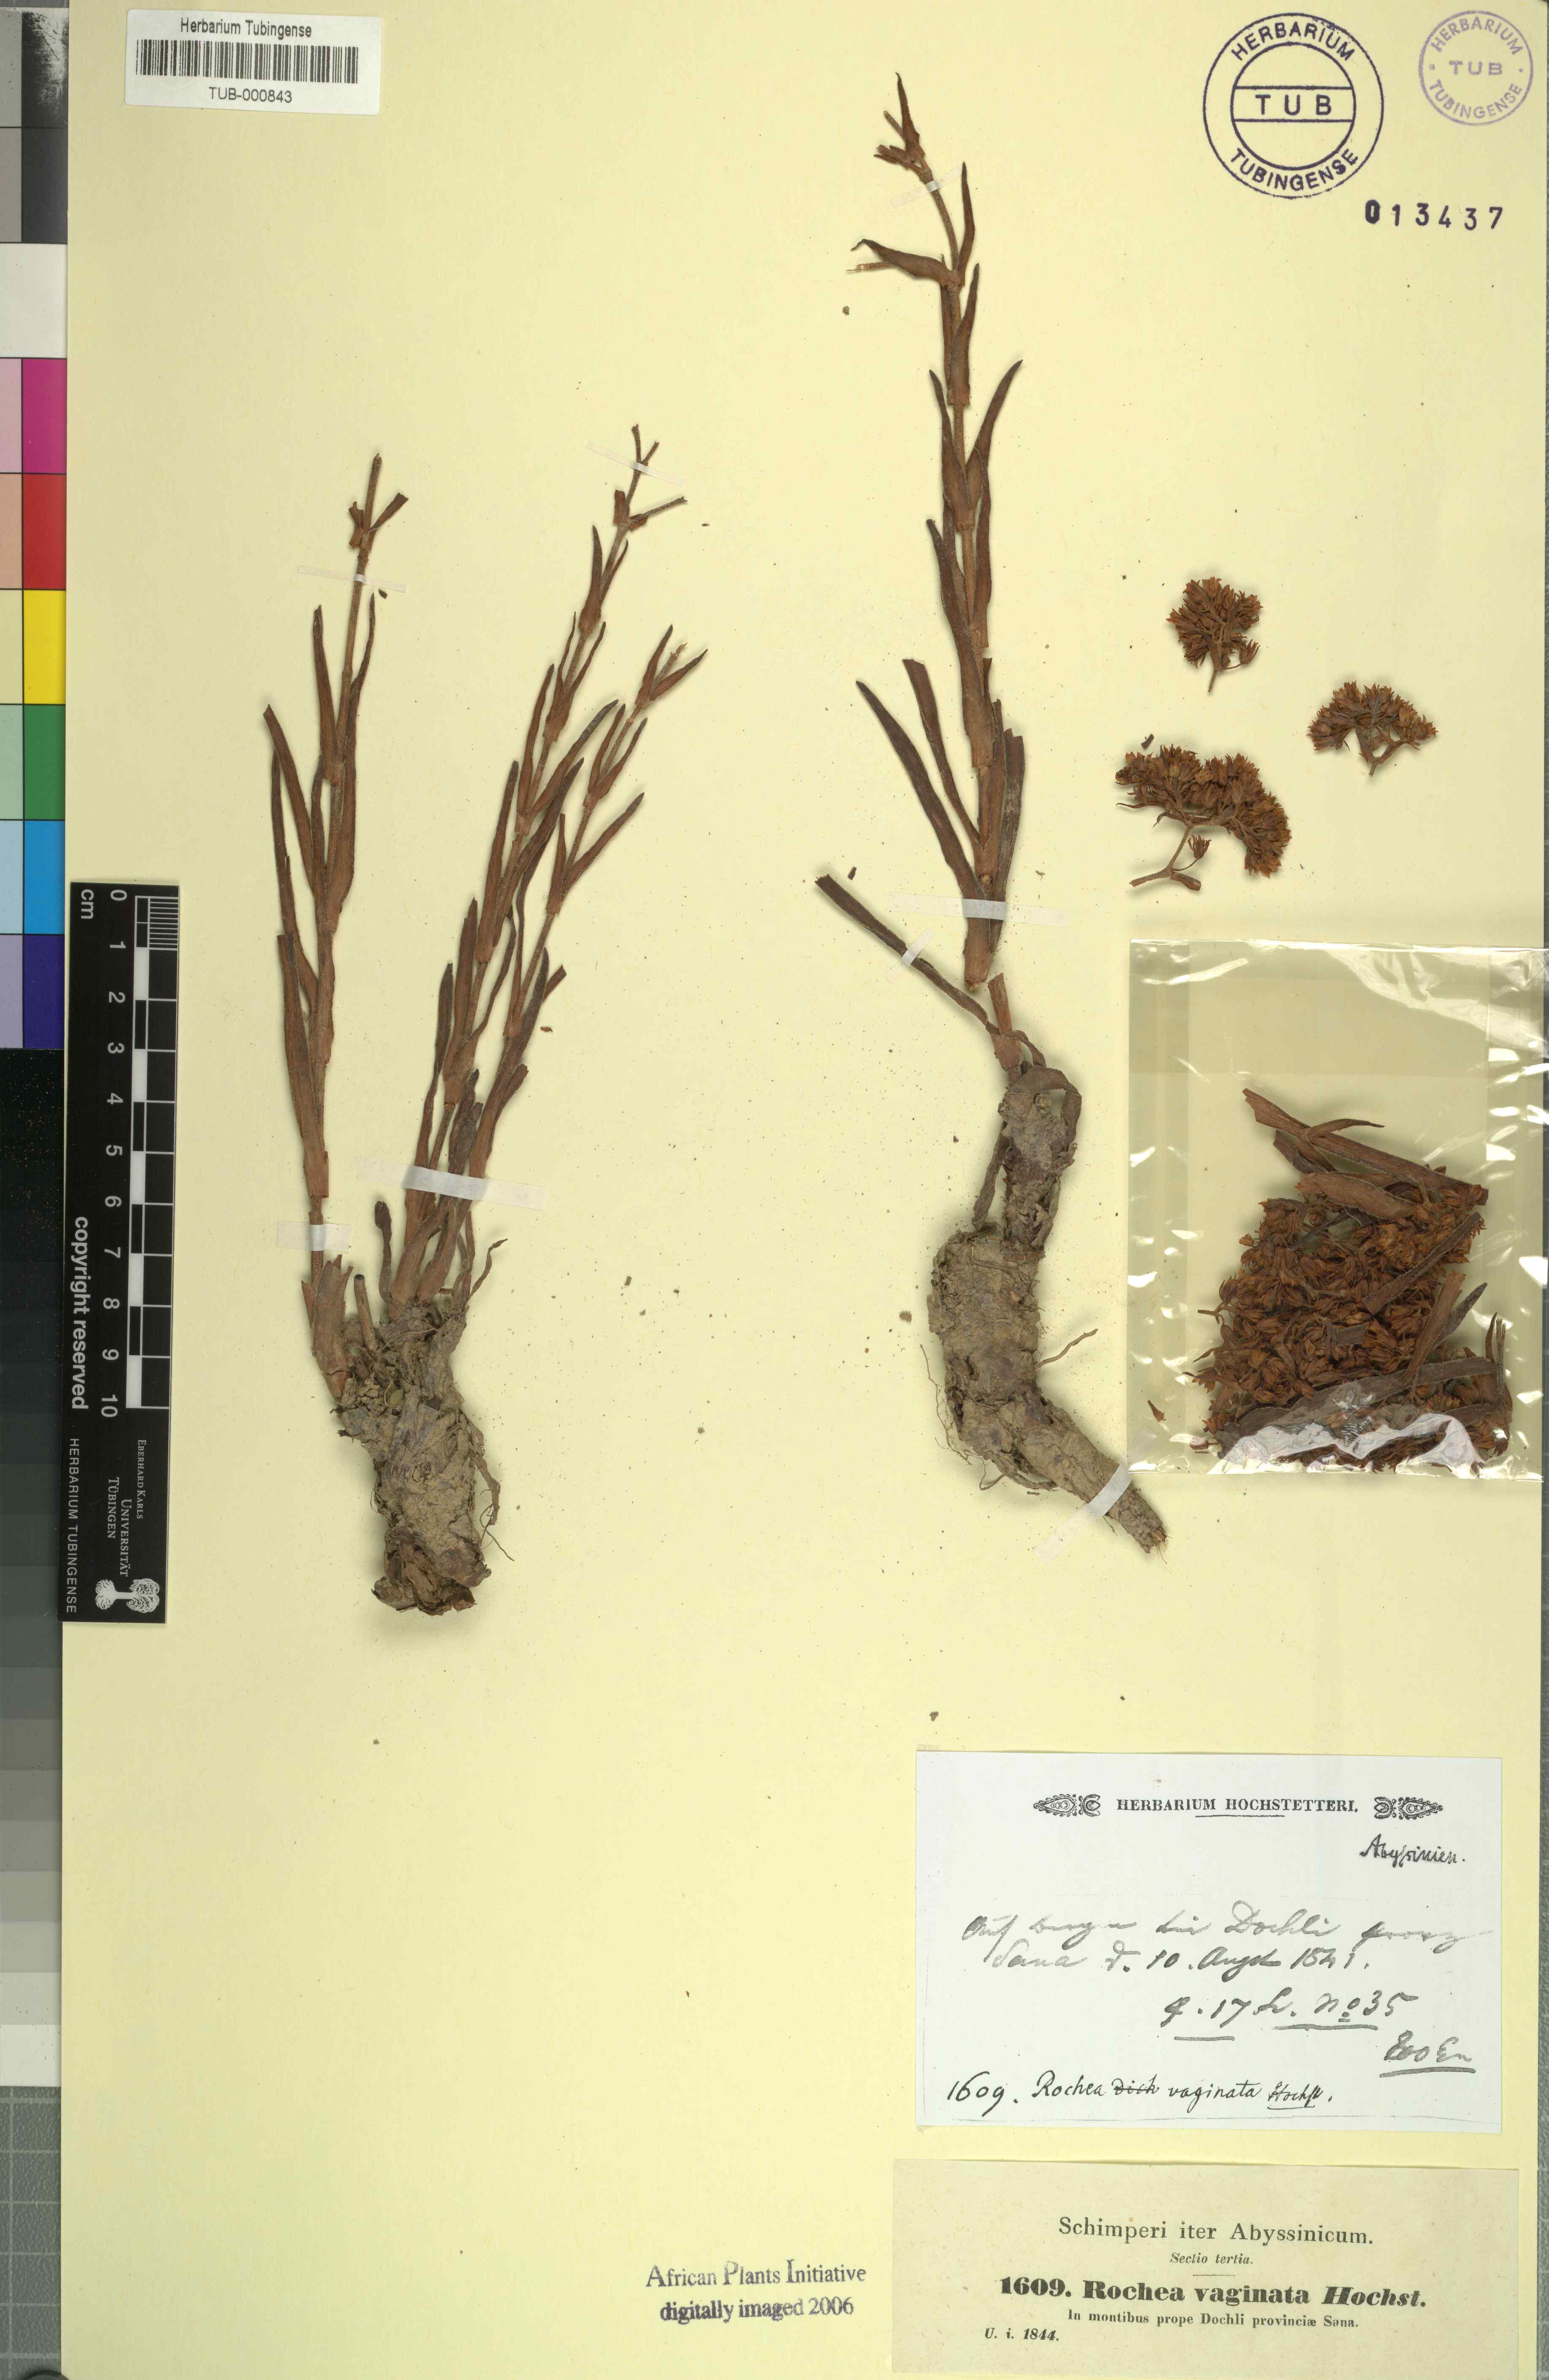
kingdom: Plantae
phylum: Tracheophyta
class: Magnoliopsida
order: Saxifragales
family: Crassulaceae
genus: Crassula
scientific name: Crassula alba
